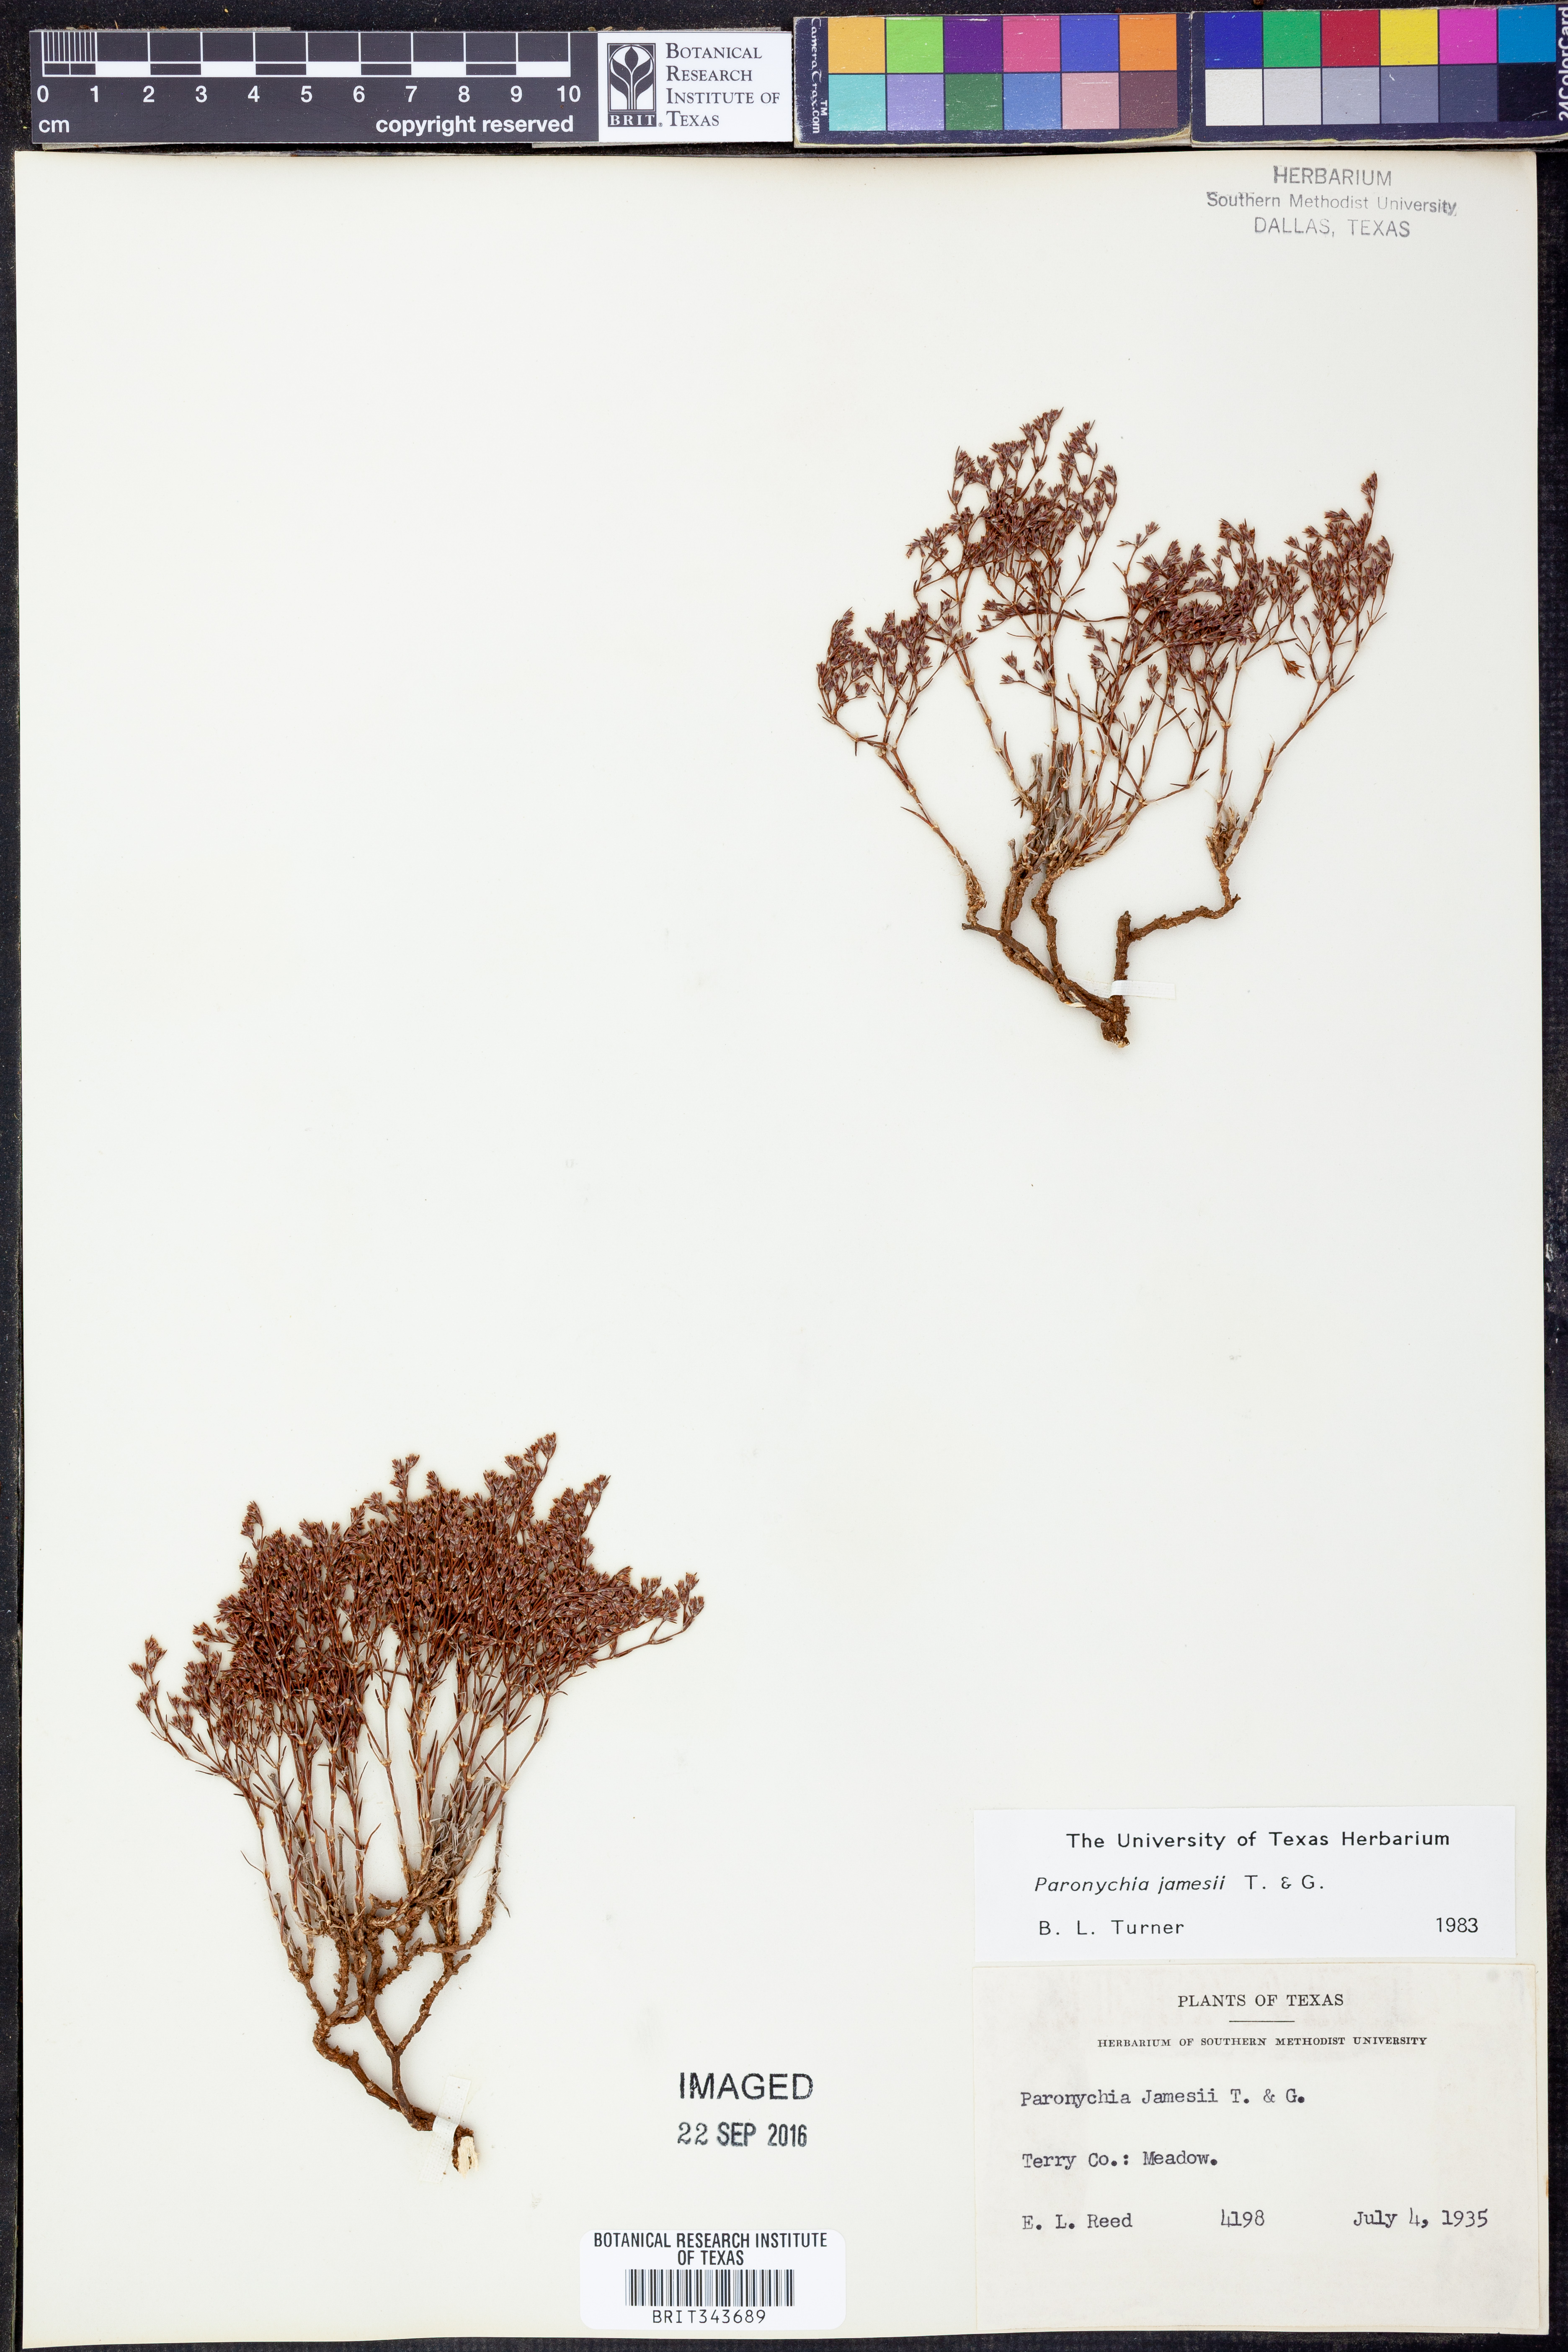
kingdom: Plantae
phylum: Tracheophyta
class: Magnoliopsida
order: Caryophyllales
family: Caryophyllaceae
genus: Paronychia
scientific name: Paronychia jamesii
